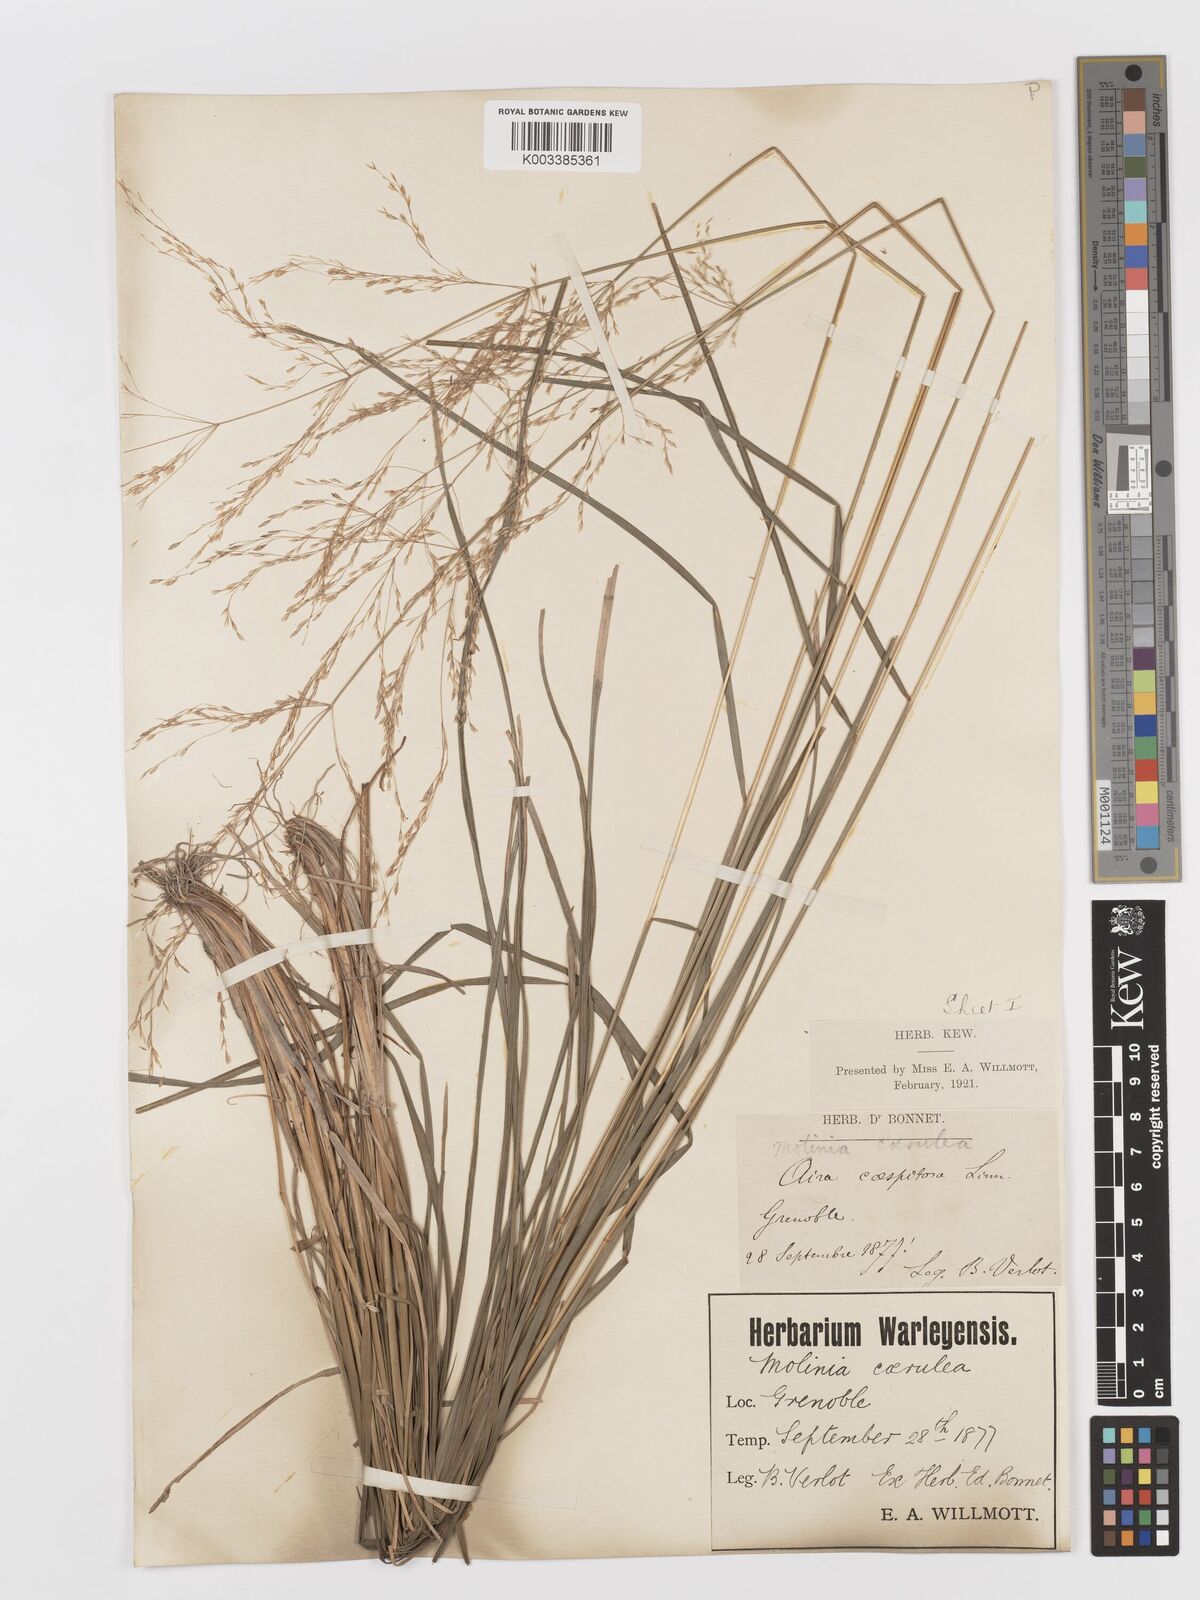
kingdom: Plantae
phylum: Tracheophyta
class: Liliopsida
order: Poales
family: Poaceae
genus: Deschampsia
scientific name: Deschampsia cespitosa
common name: Tufted hair-grass
